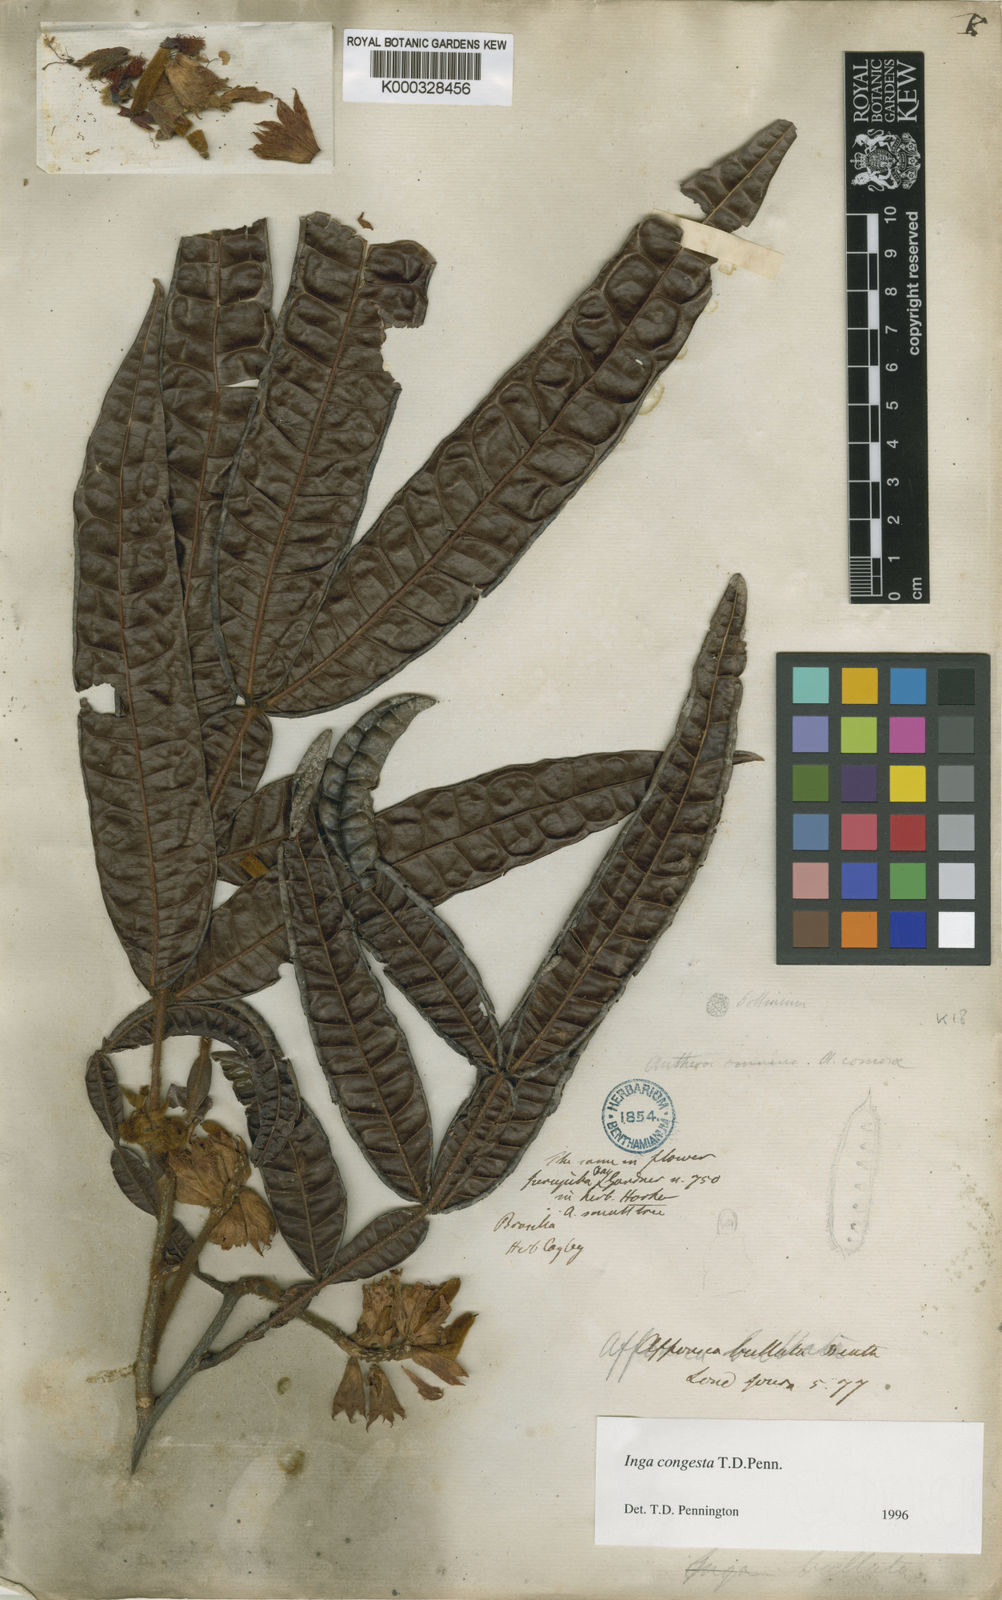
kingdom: Plantae
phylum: Tracheophyta
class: Magnoliopsida
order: Fabales
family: Fabaceae
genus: Inga
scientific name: Inga congesta
